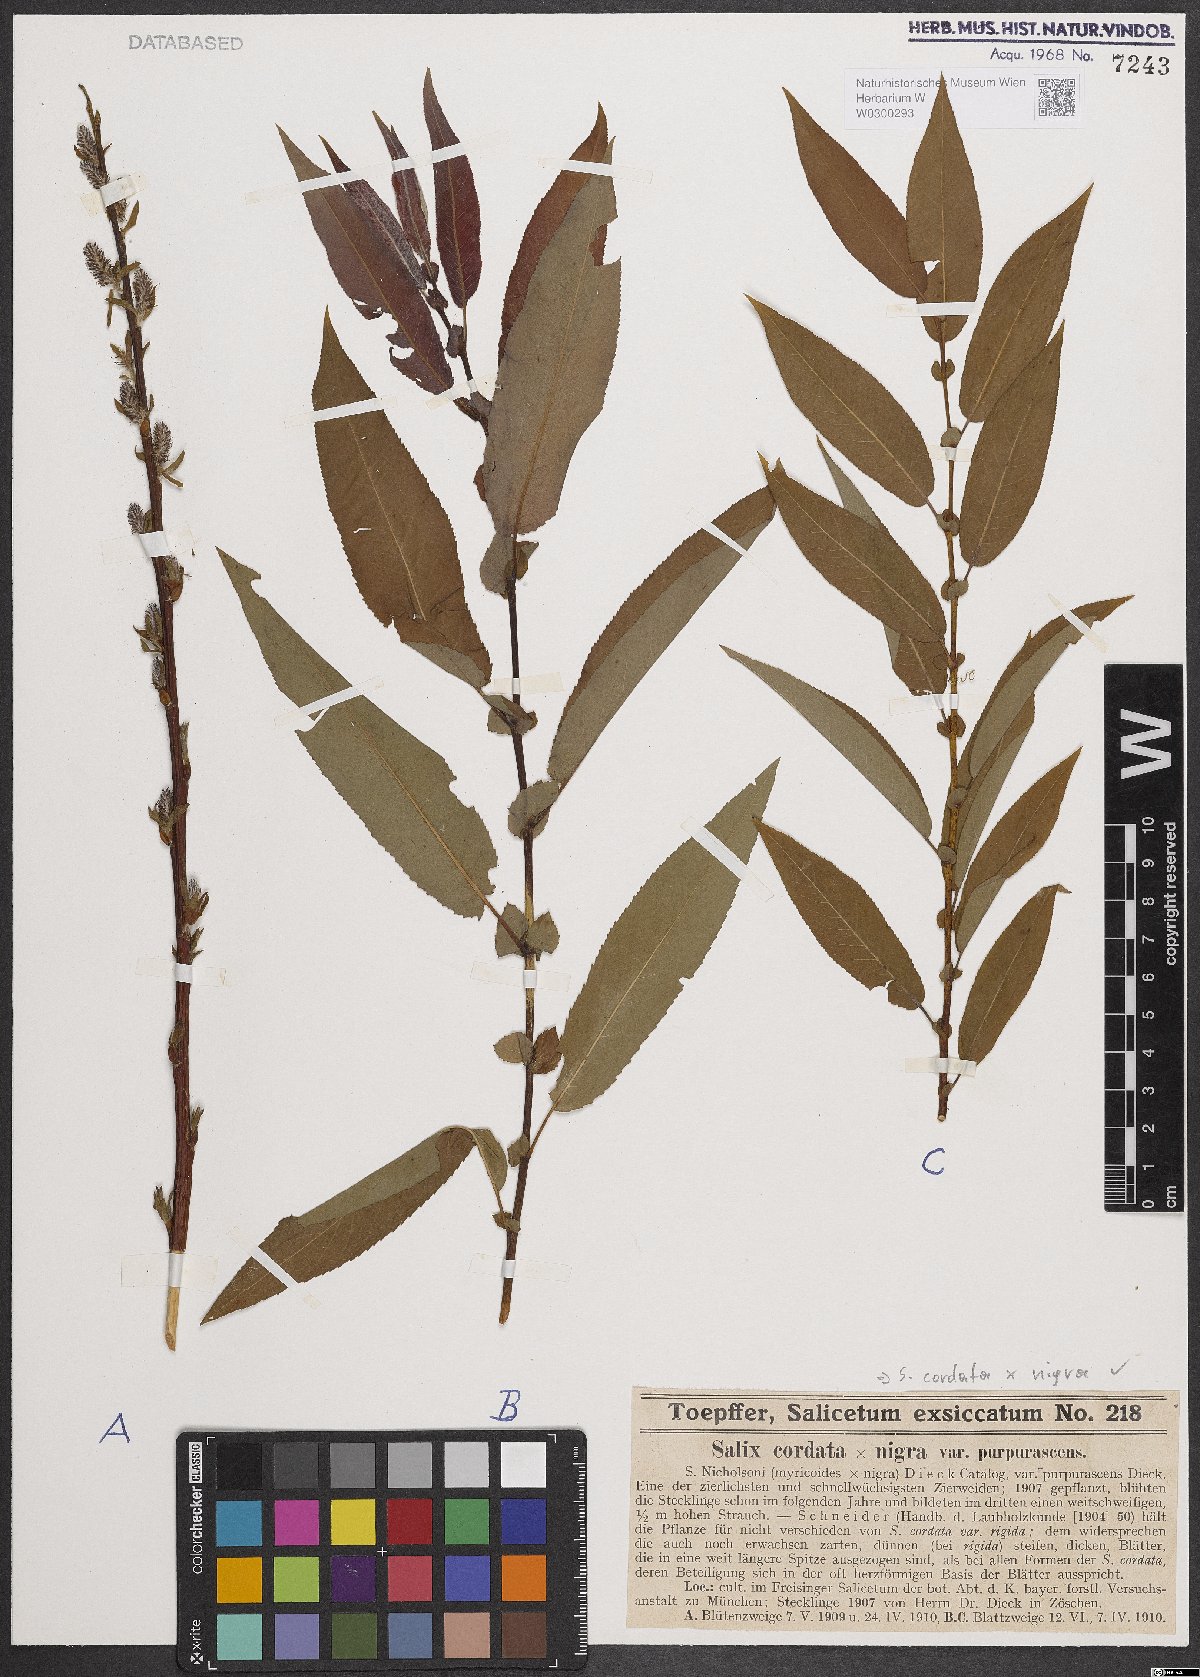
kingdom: Plantae
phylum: Tracheophyta
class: Magnoliopsida
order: Malpighiales
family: Salicaceae
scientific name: Salicaceae
